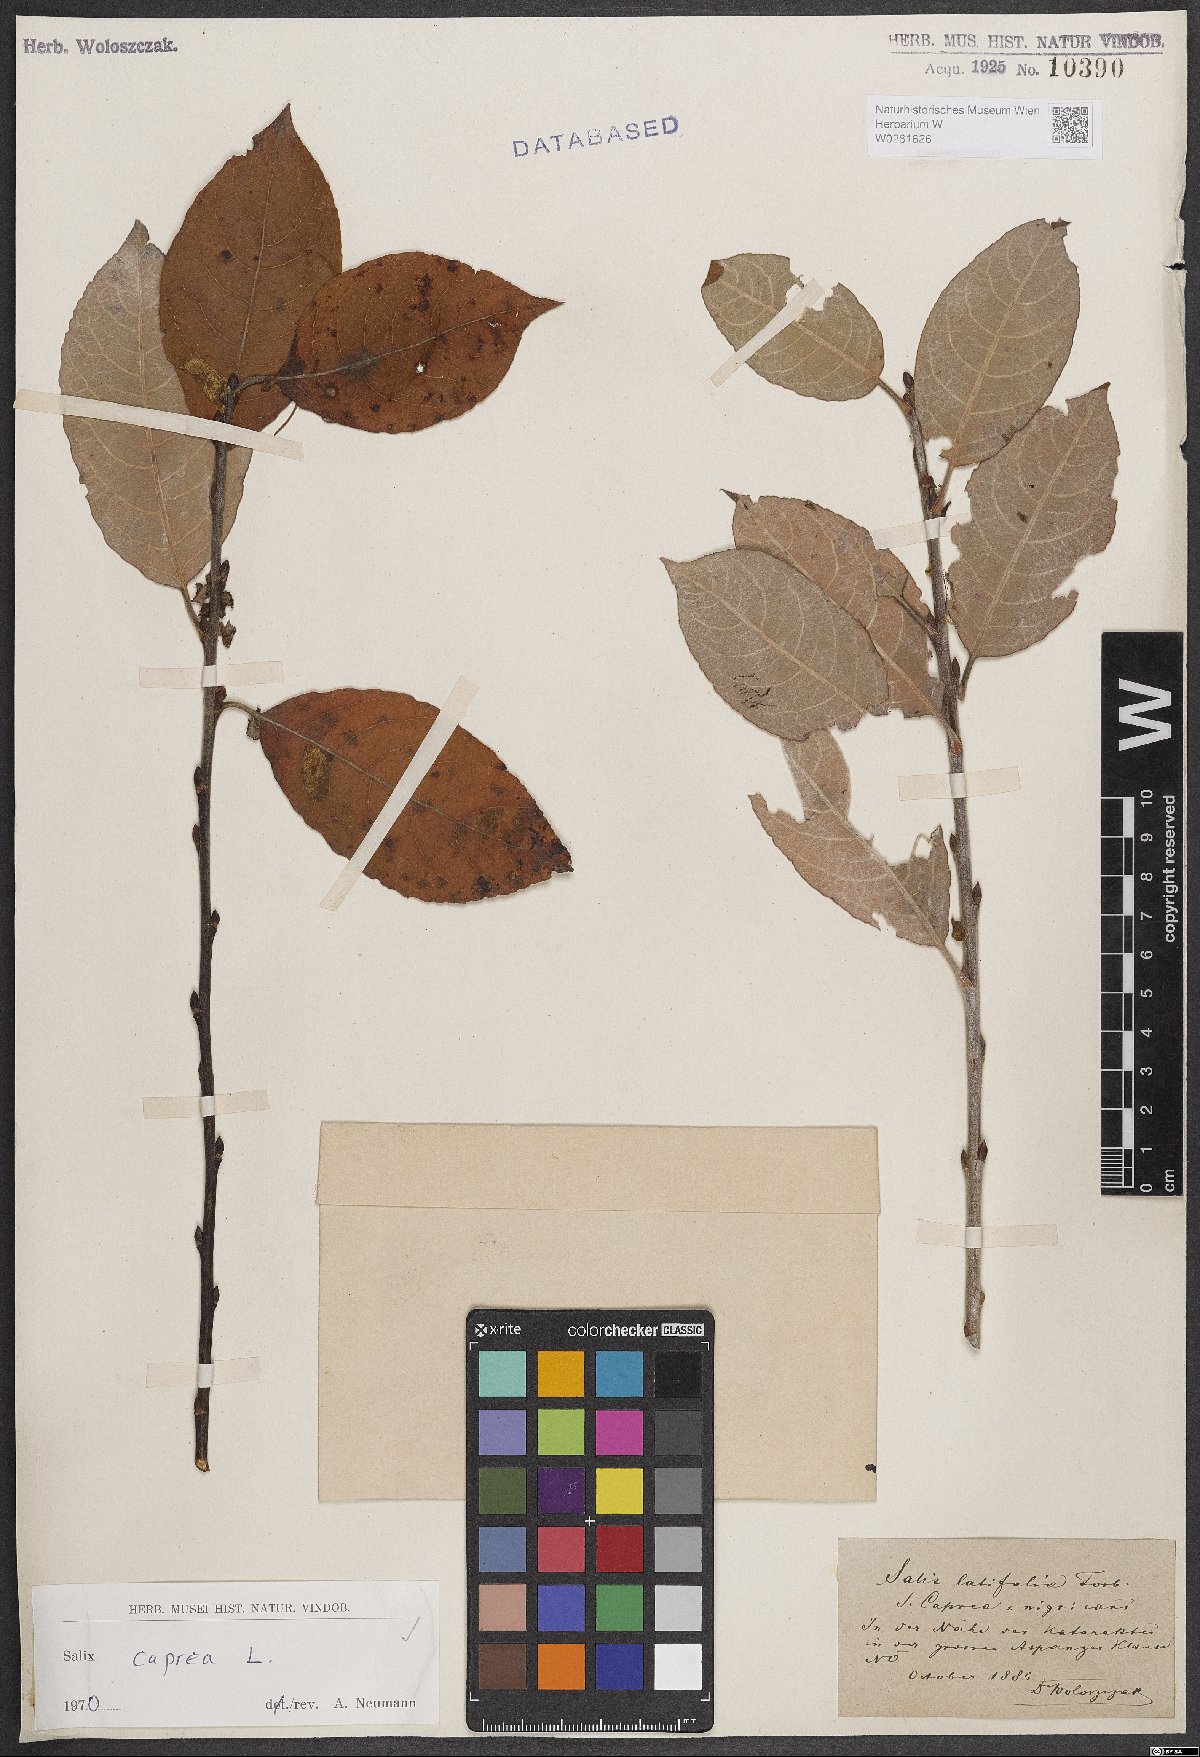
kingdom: Plantae
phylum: Tracheophyta
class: Magnoliopsida
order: Malpighiales
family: Salicaceae
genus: Salix
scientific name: Salix caprea
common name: Goat willow
